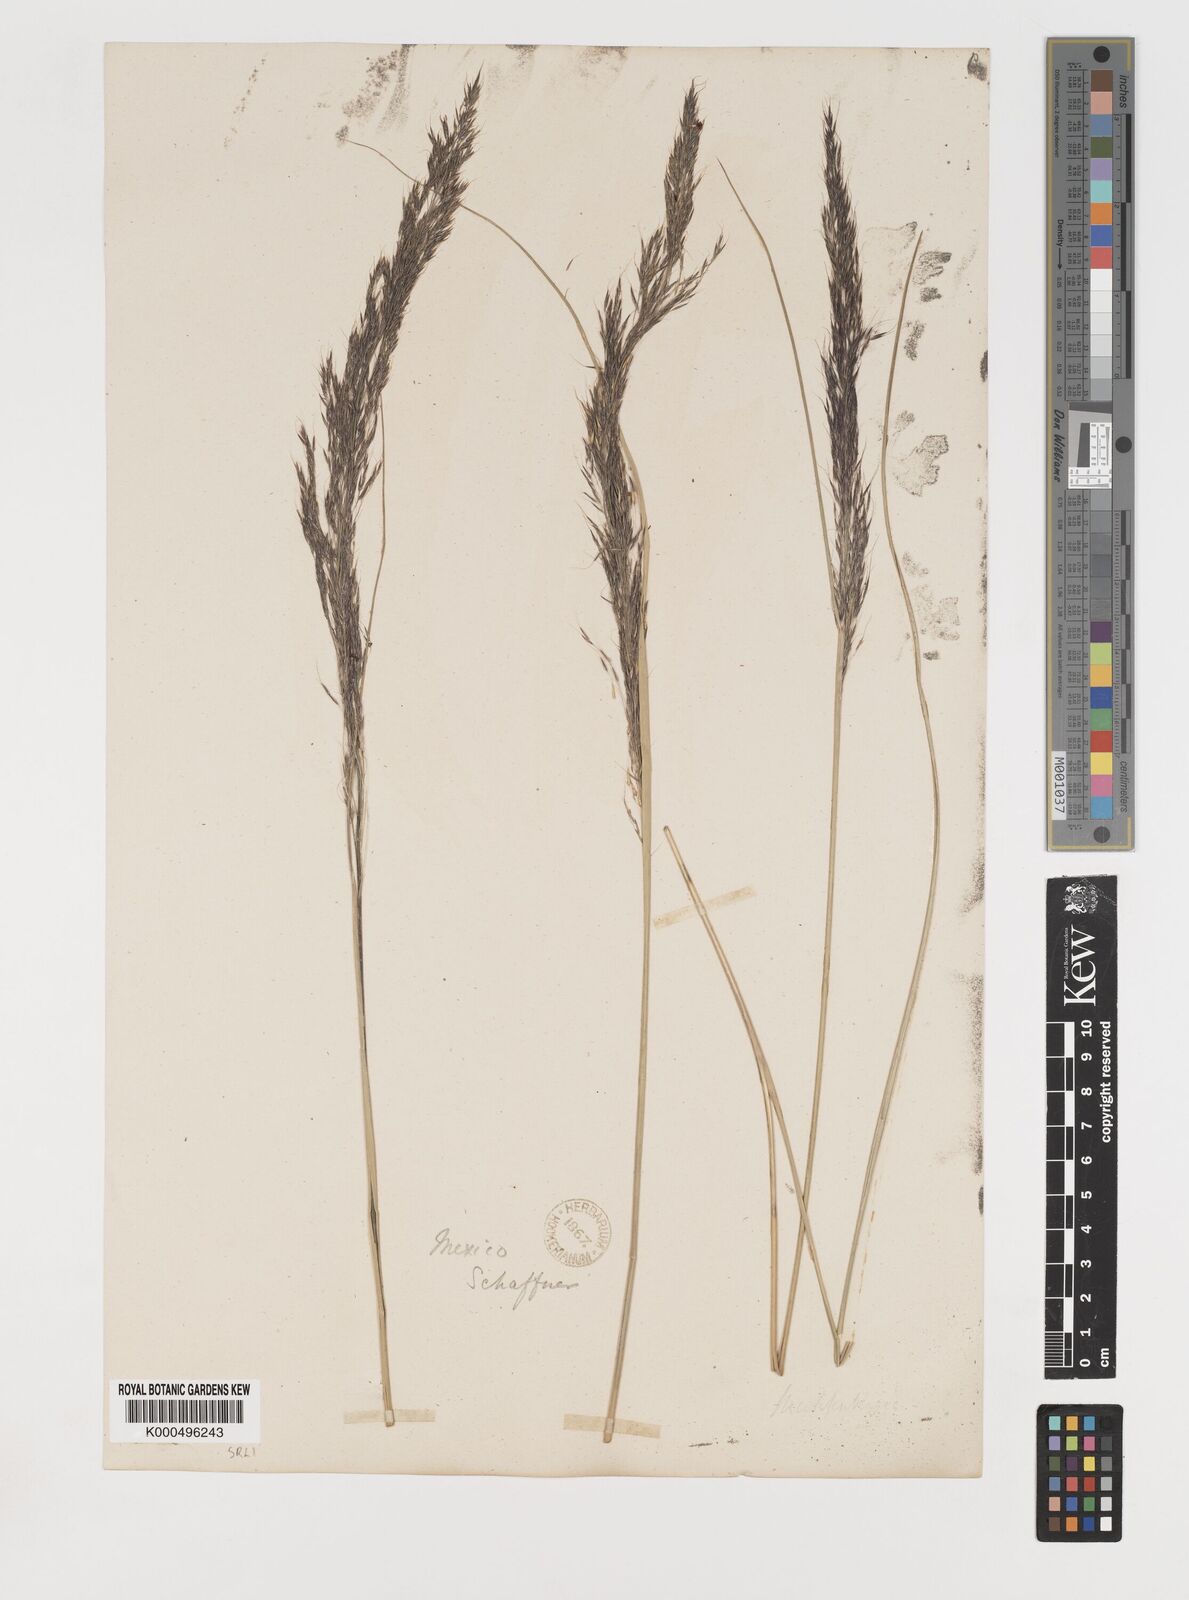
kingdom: Plantae
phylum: Tracheophyta
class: Liliopsida
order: Poales
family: Poaceae
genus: Muhlenbergia
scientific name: Muhlenbergia
